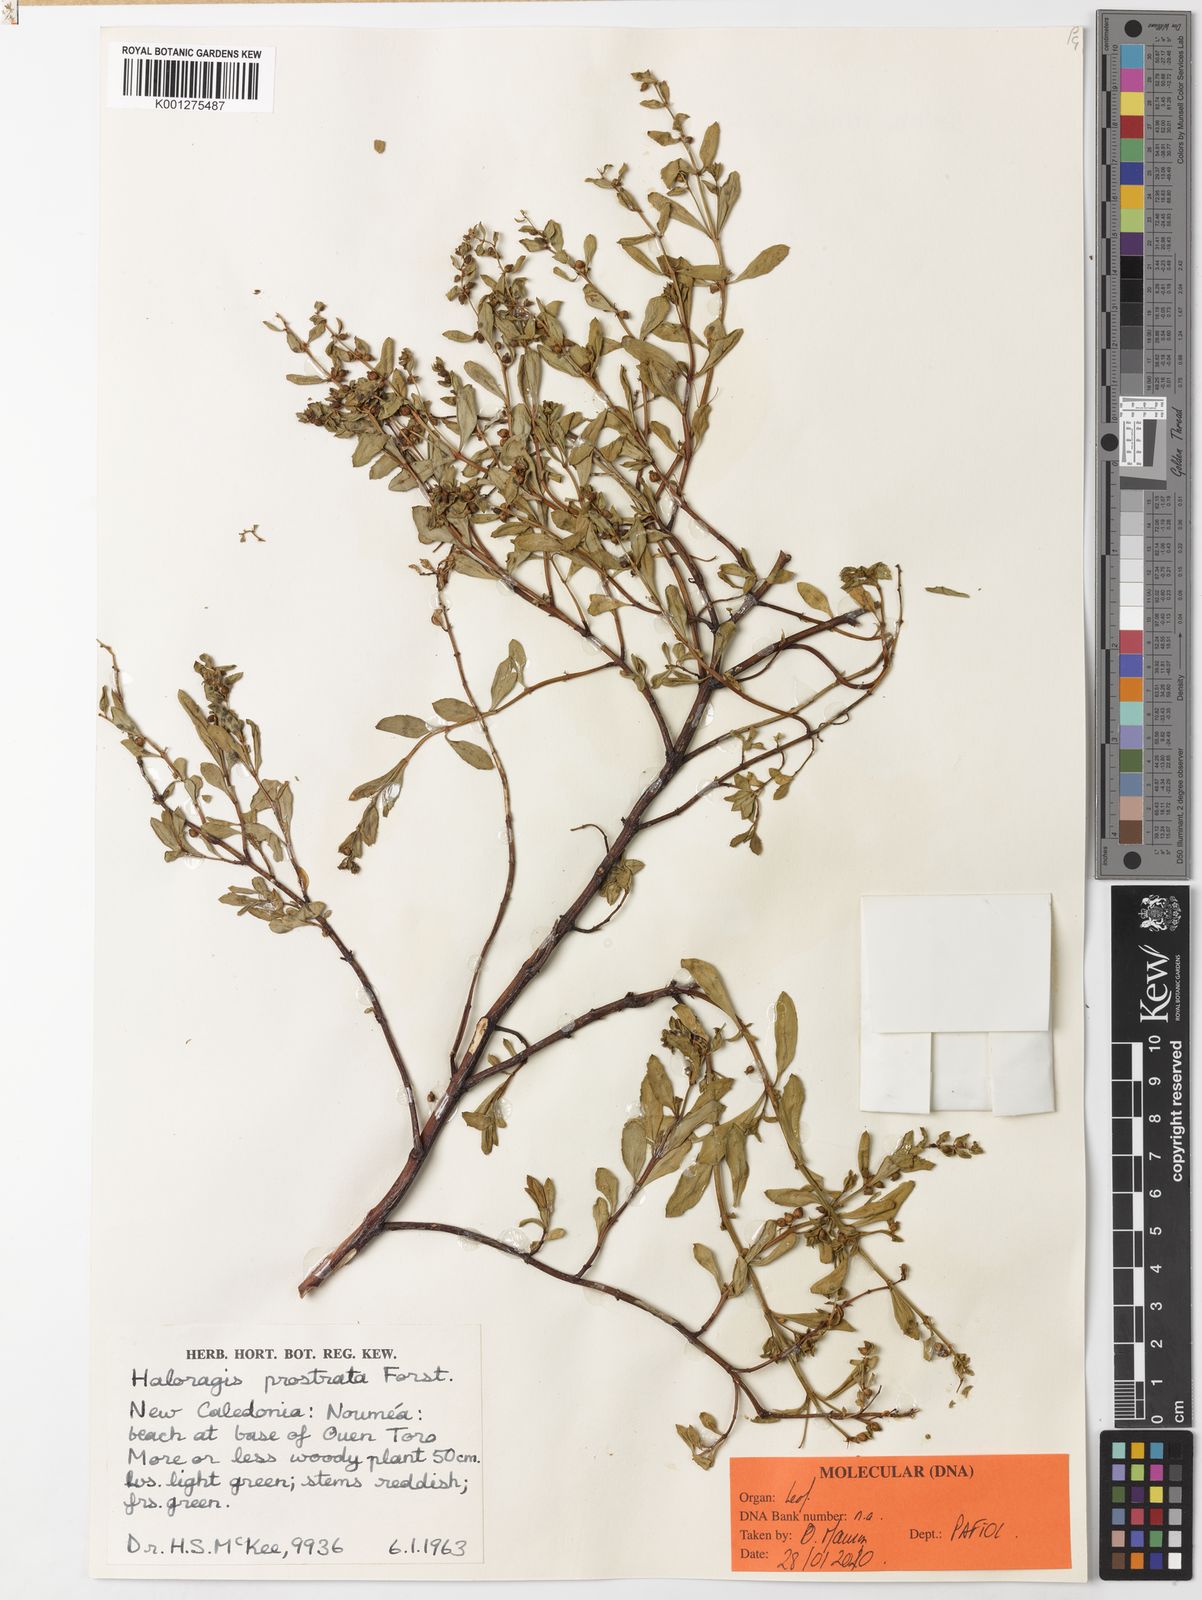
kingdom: Plantae
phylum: Tracheophyta
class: Magnoliopsida
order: Saxifragales
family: Haloragaceae
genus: Haloragis
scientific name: Haloragis prostrata
